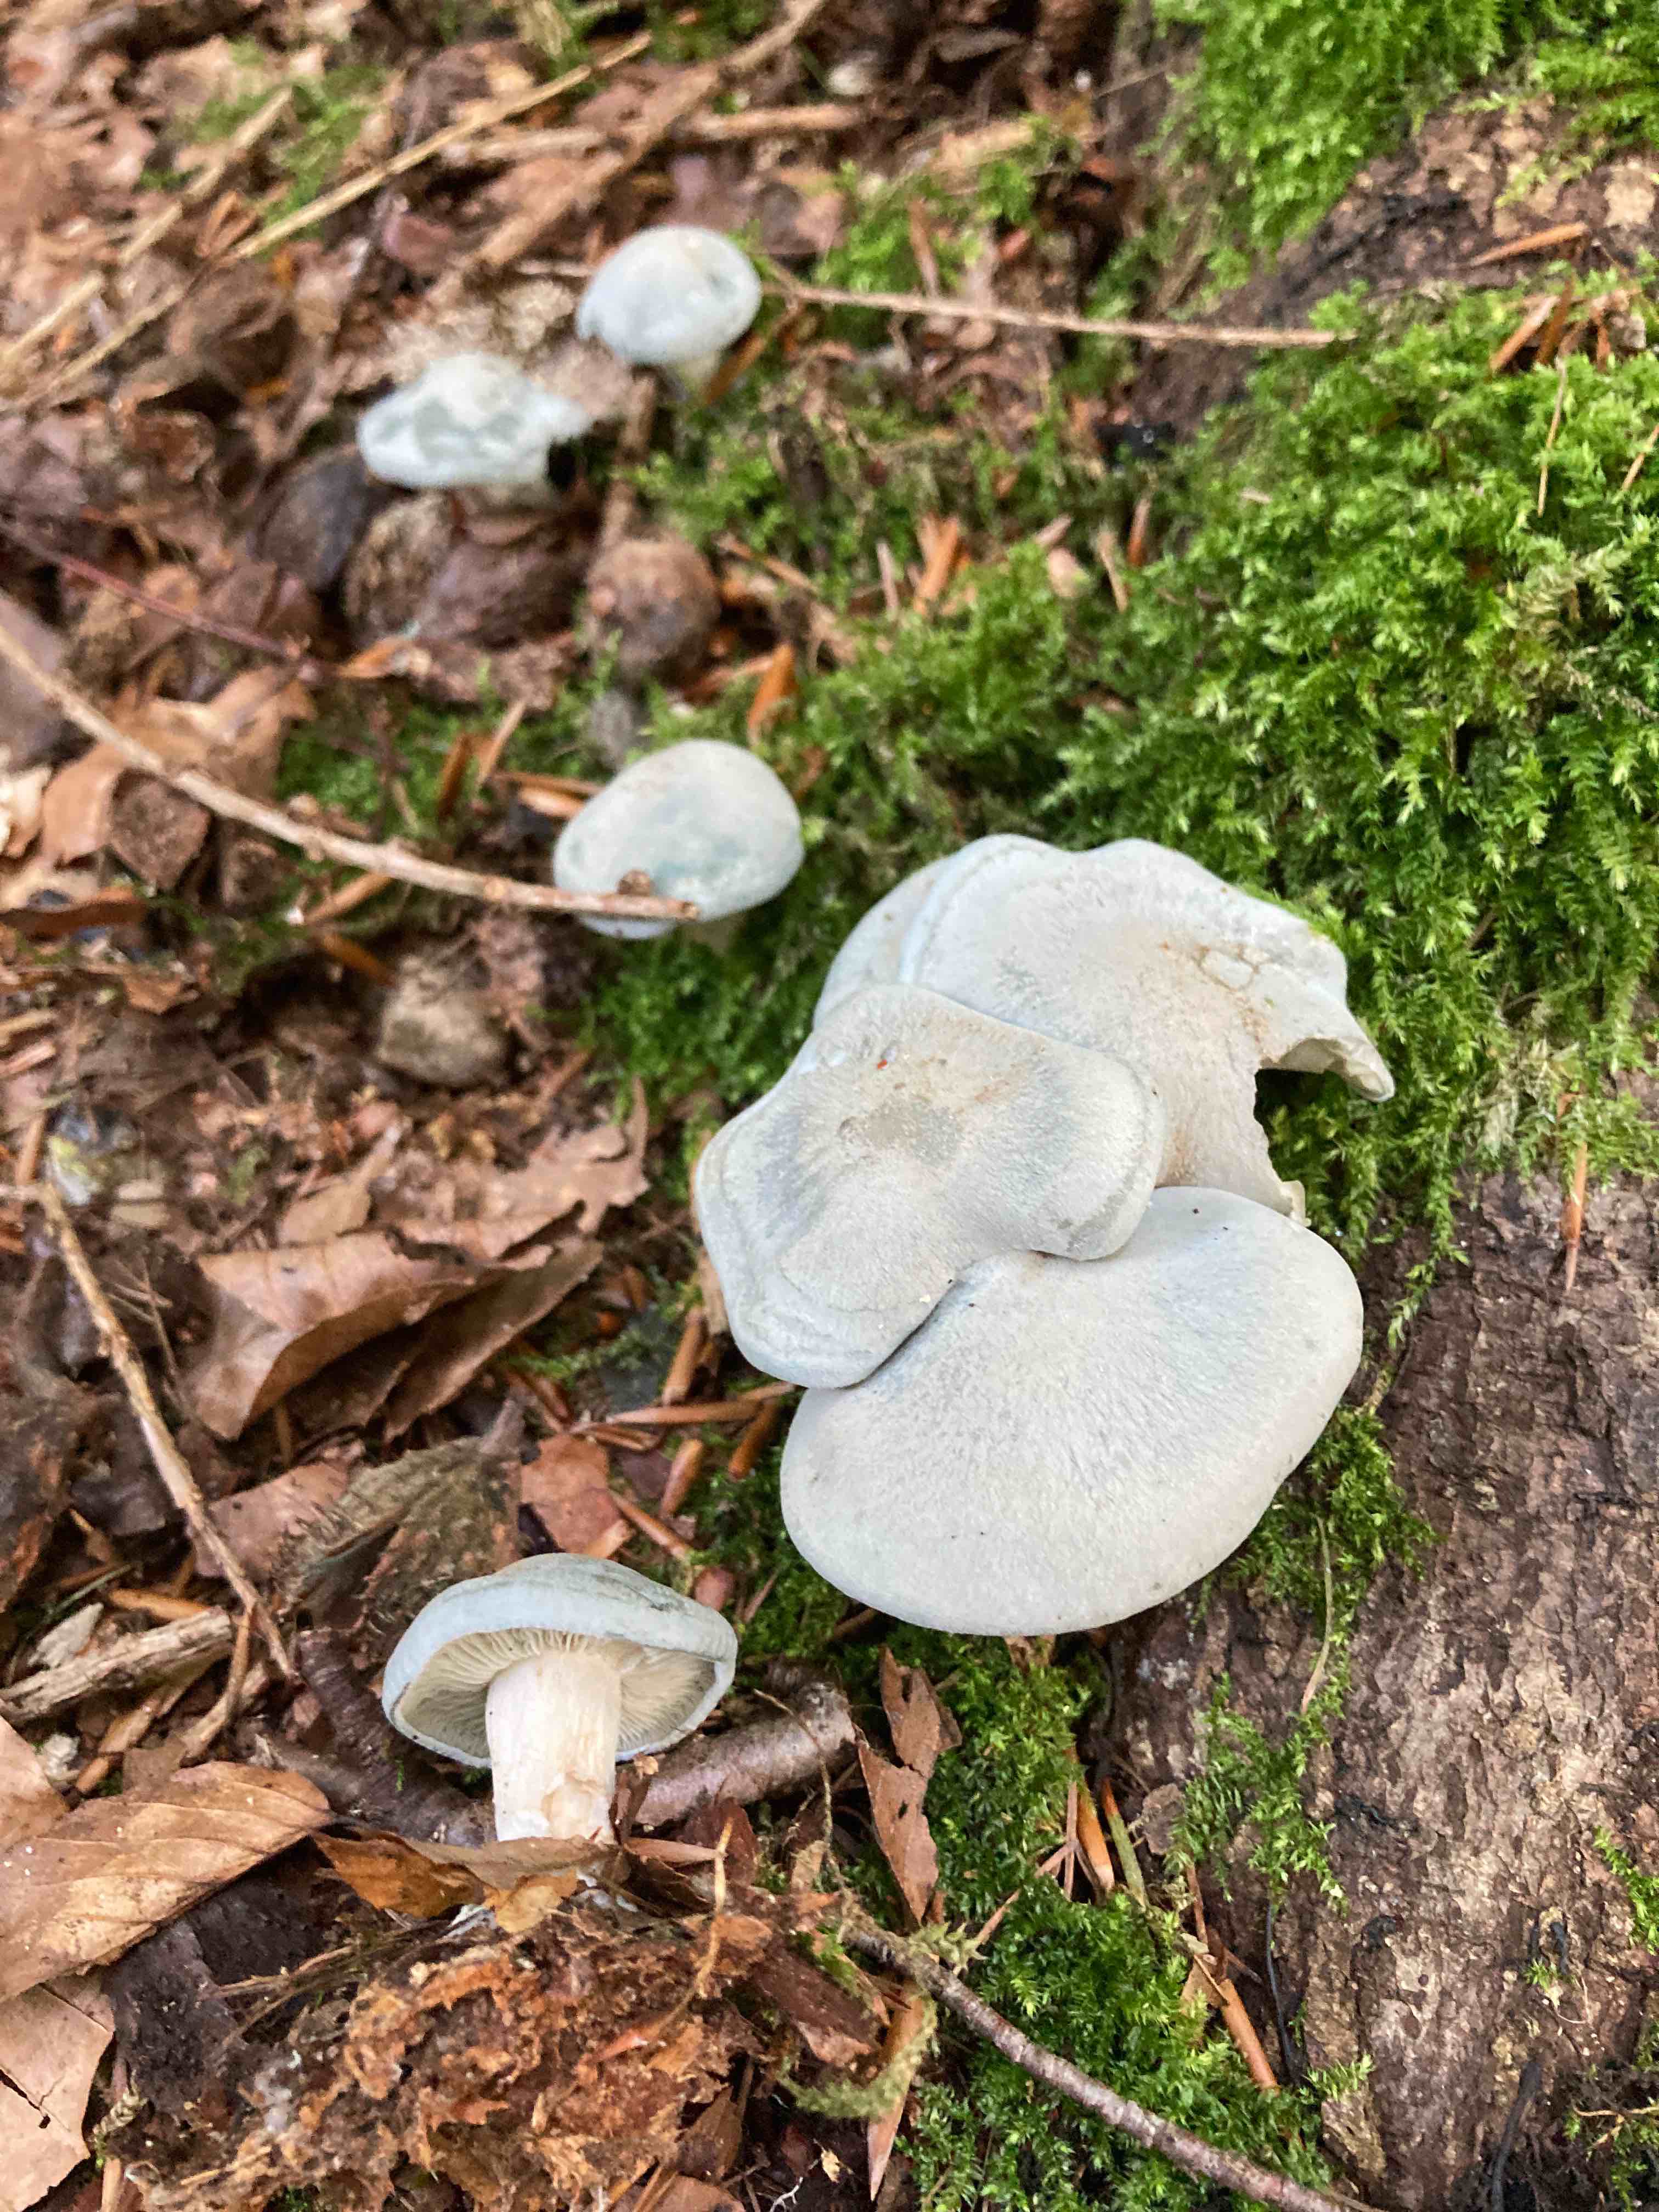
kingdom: Fungi
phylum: Basidiomycota
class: Agaricomycetes
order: Agaricales
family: Tricholomataceae
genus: Clitocybe
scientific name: Clitocybe odora
